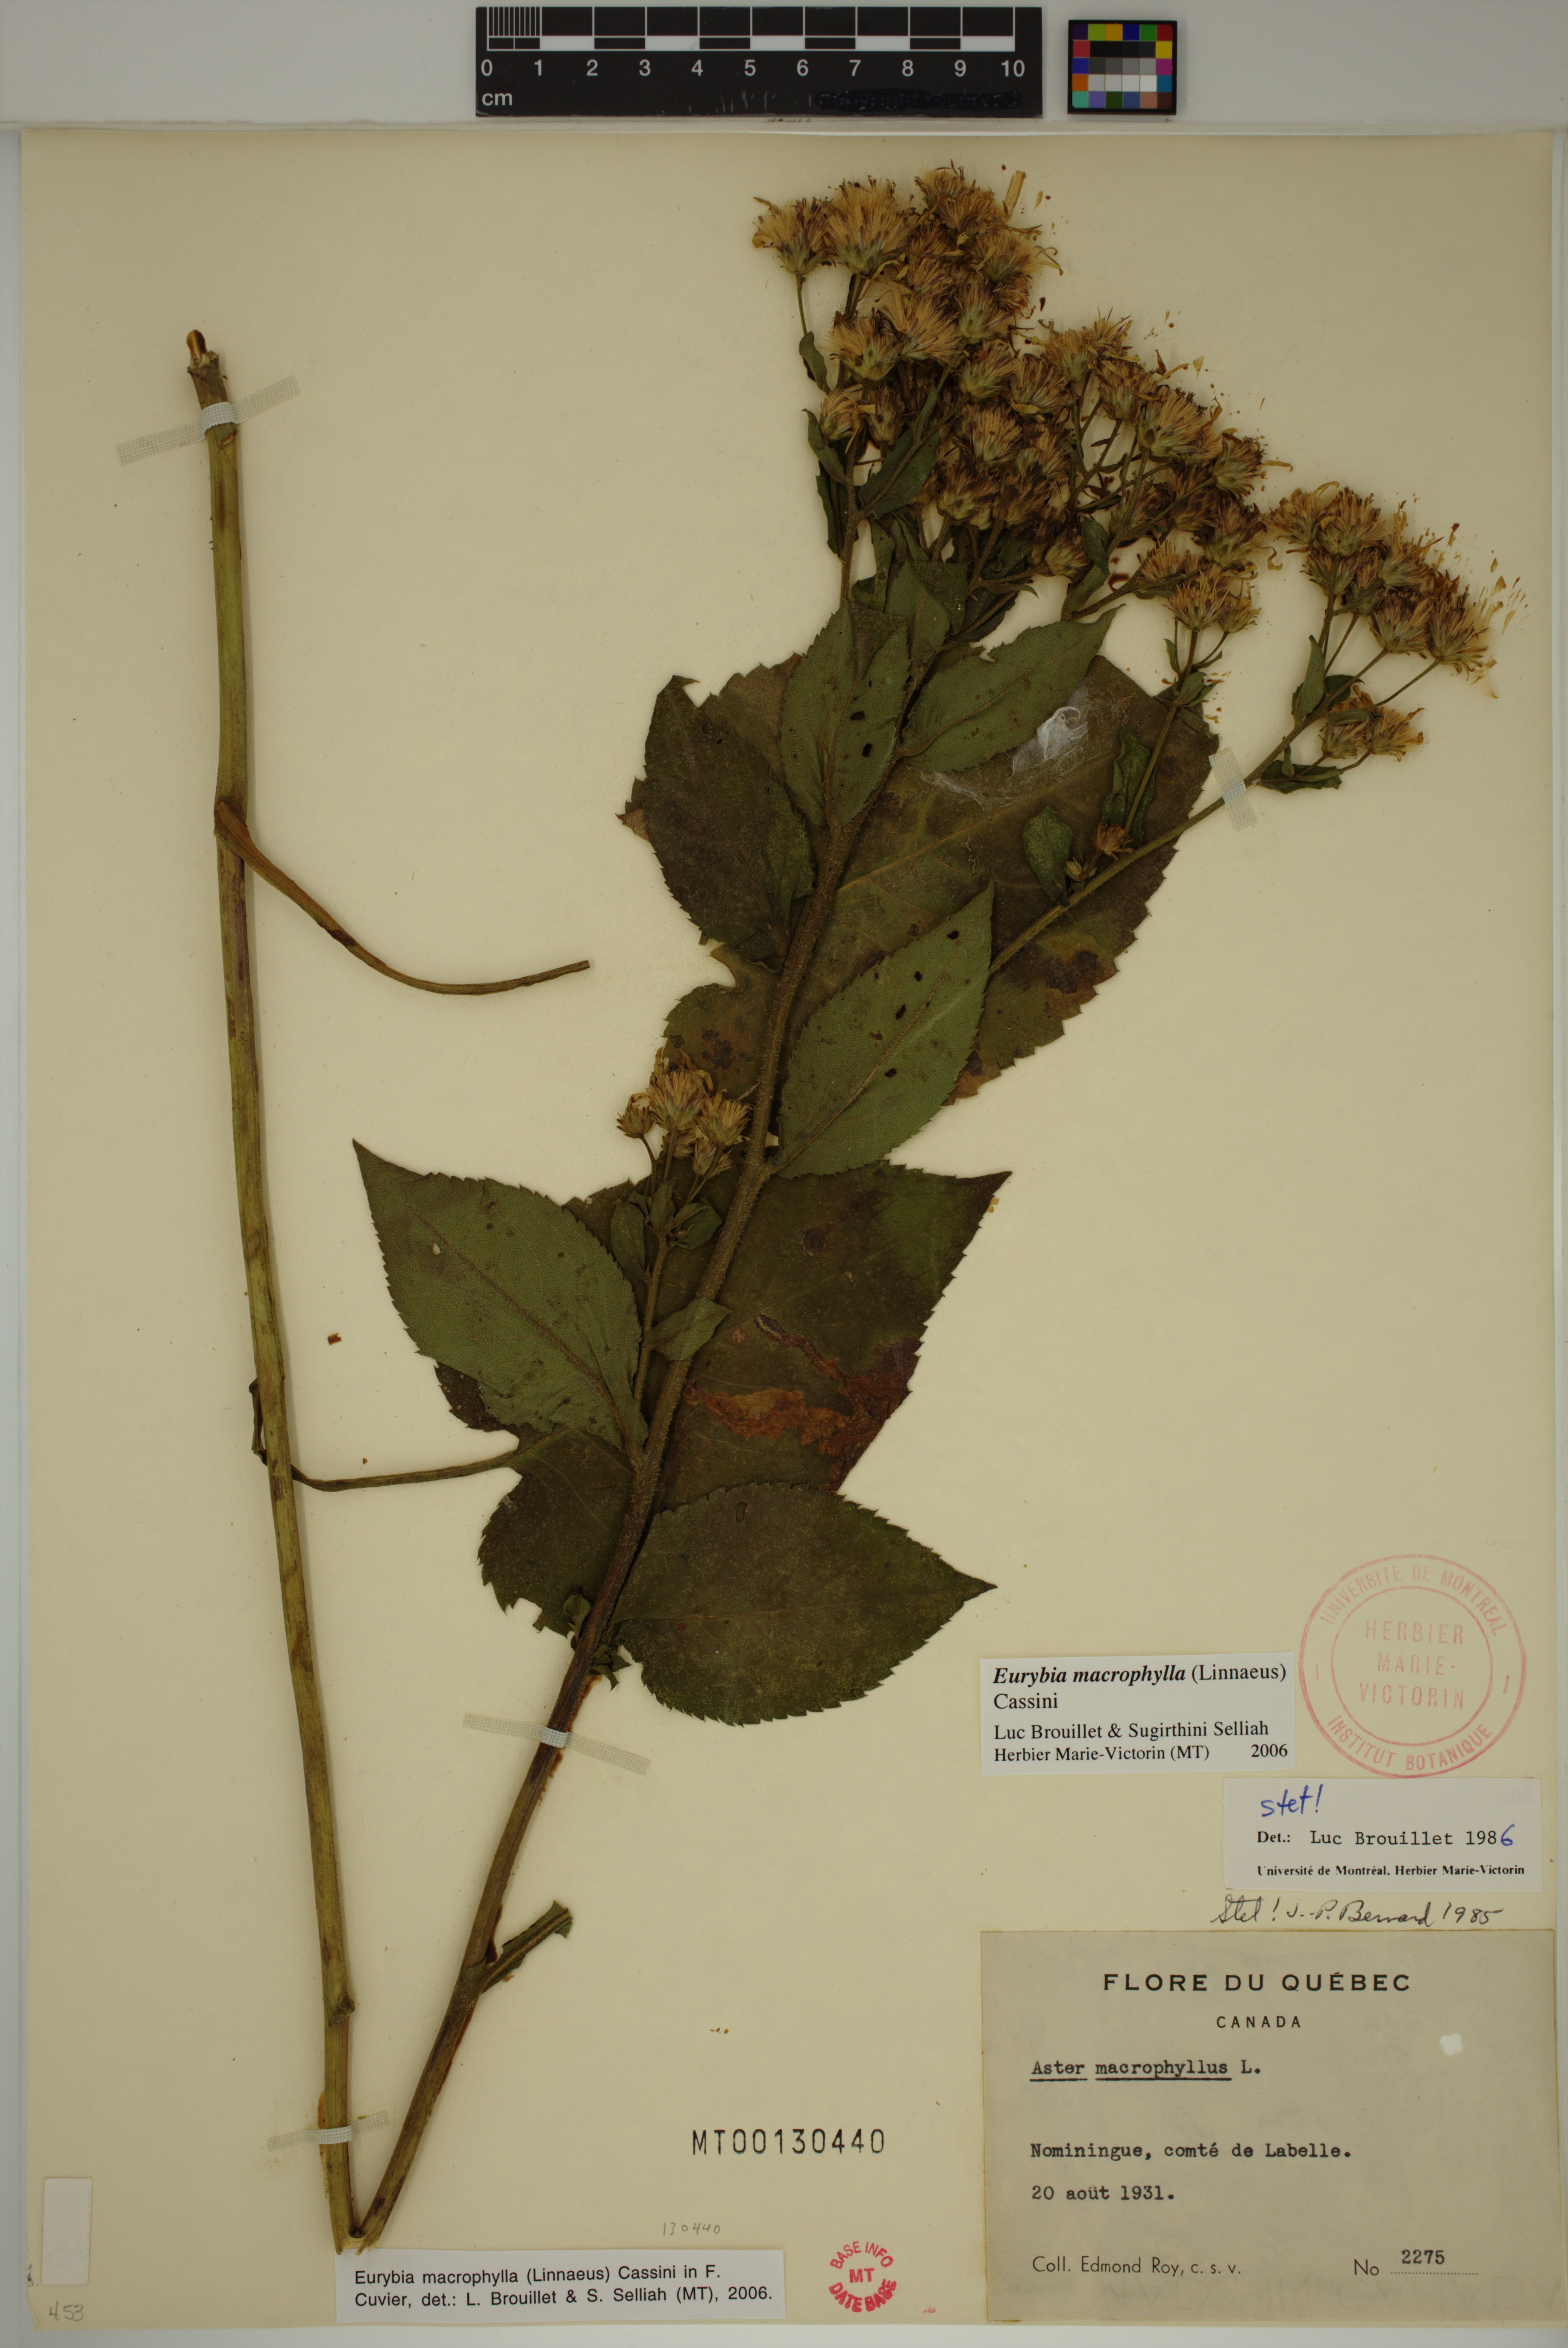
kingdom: Plantae
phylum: Tracheophyta
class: Magnoliopsida
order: Asterales
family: Asteraceae
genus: Eurybia
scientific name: Eurybia macrophylla
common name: Big-leaved aster
